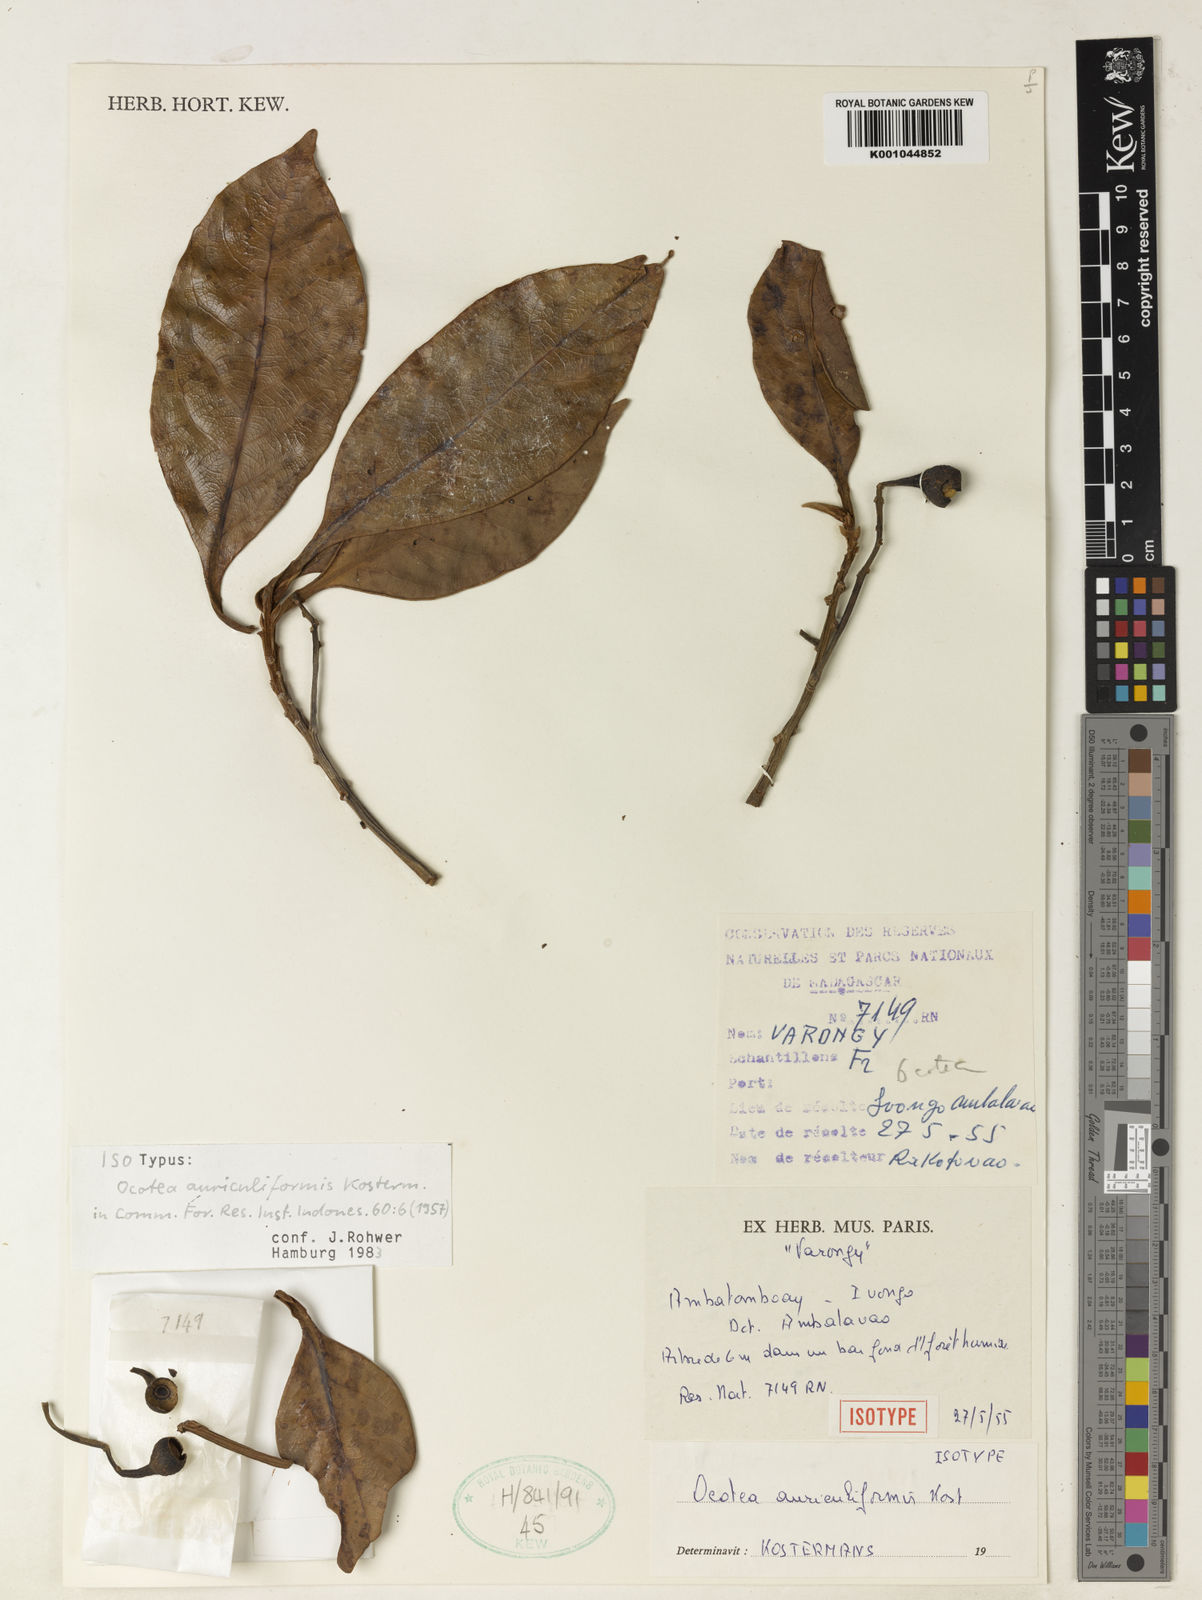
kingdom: Plantae
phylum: Tracheophyta
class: Magnoliopsida
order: Laurales
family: Lauraceae
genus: Ocotea
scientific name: Ocotea auriculiformis
